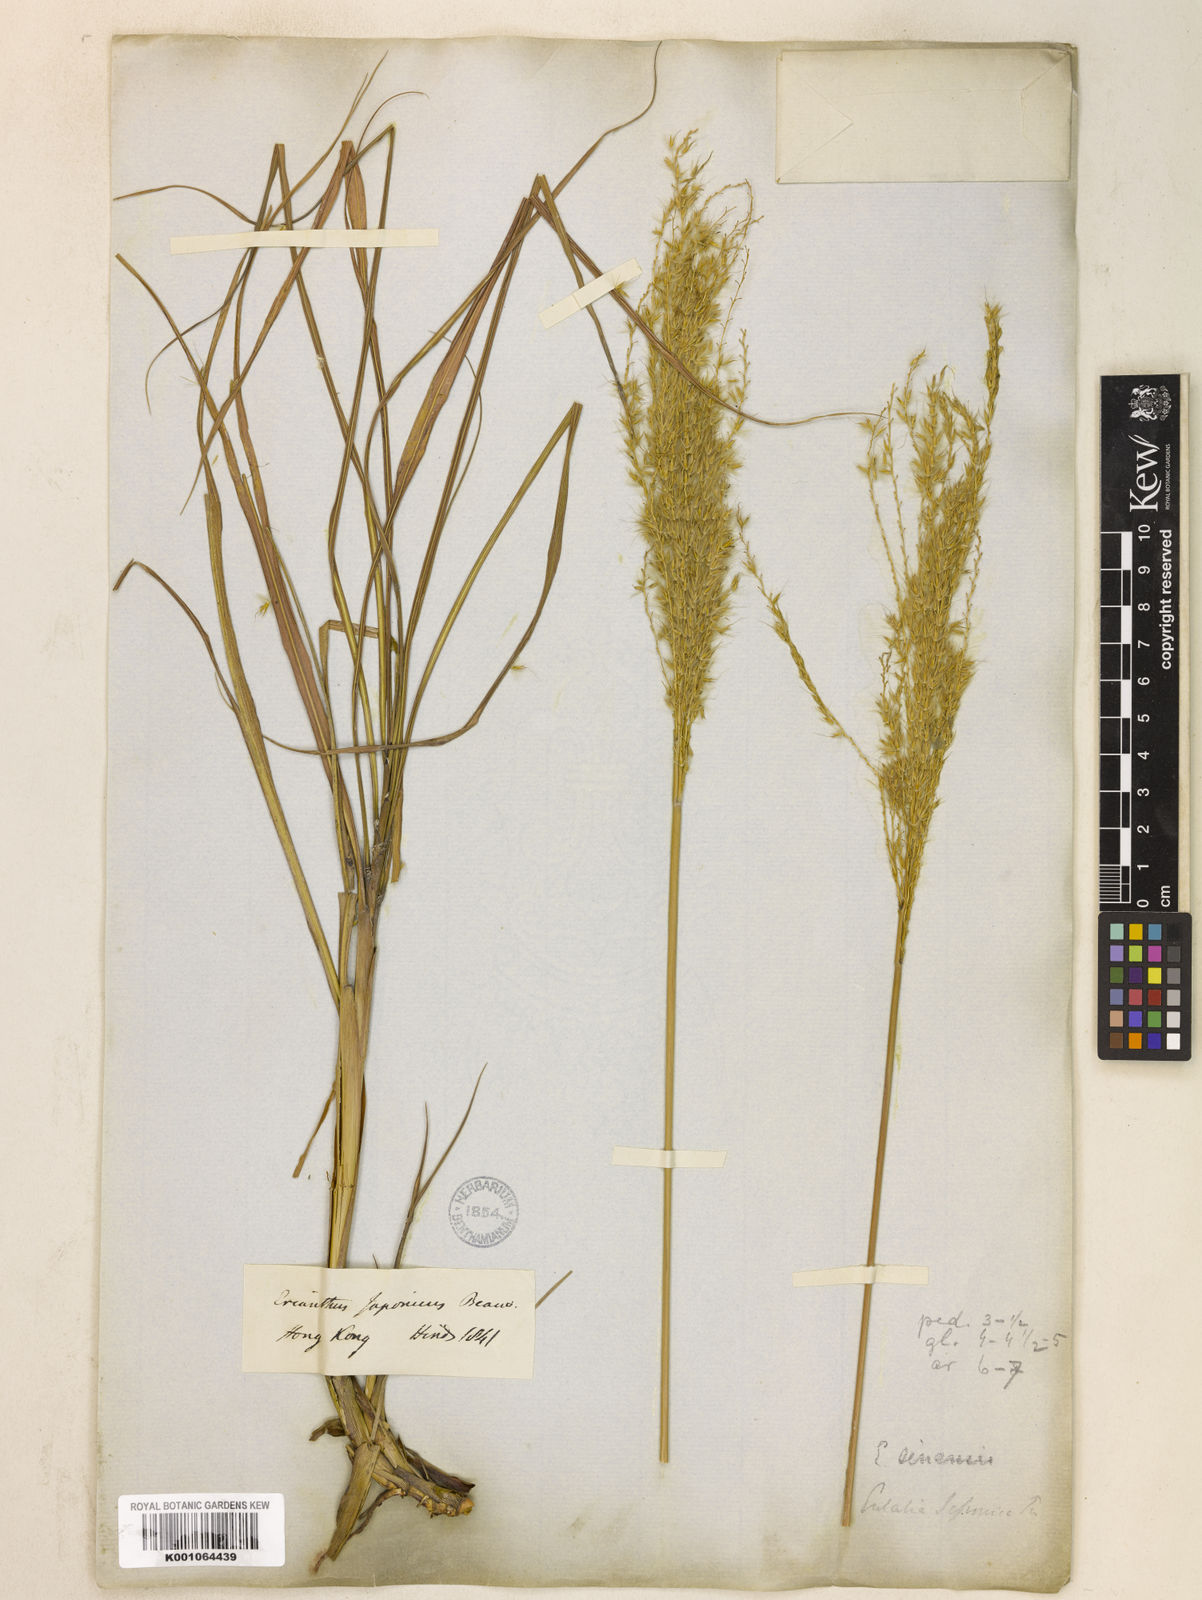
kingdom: Plantae
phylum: Tracheophyta
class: Liliopsida
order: Poales
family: Poaceae
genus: Miscanthus
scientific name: Miscanthus sinensis
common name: Chinese silvergrass
